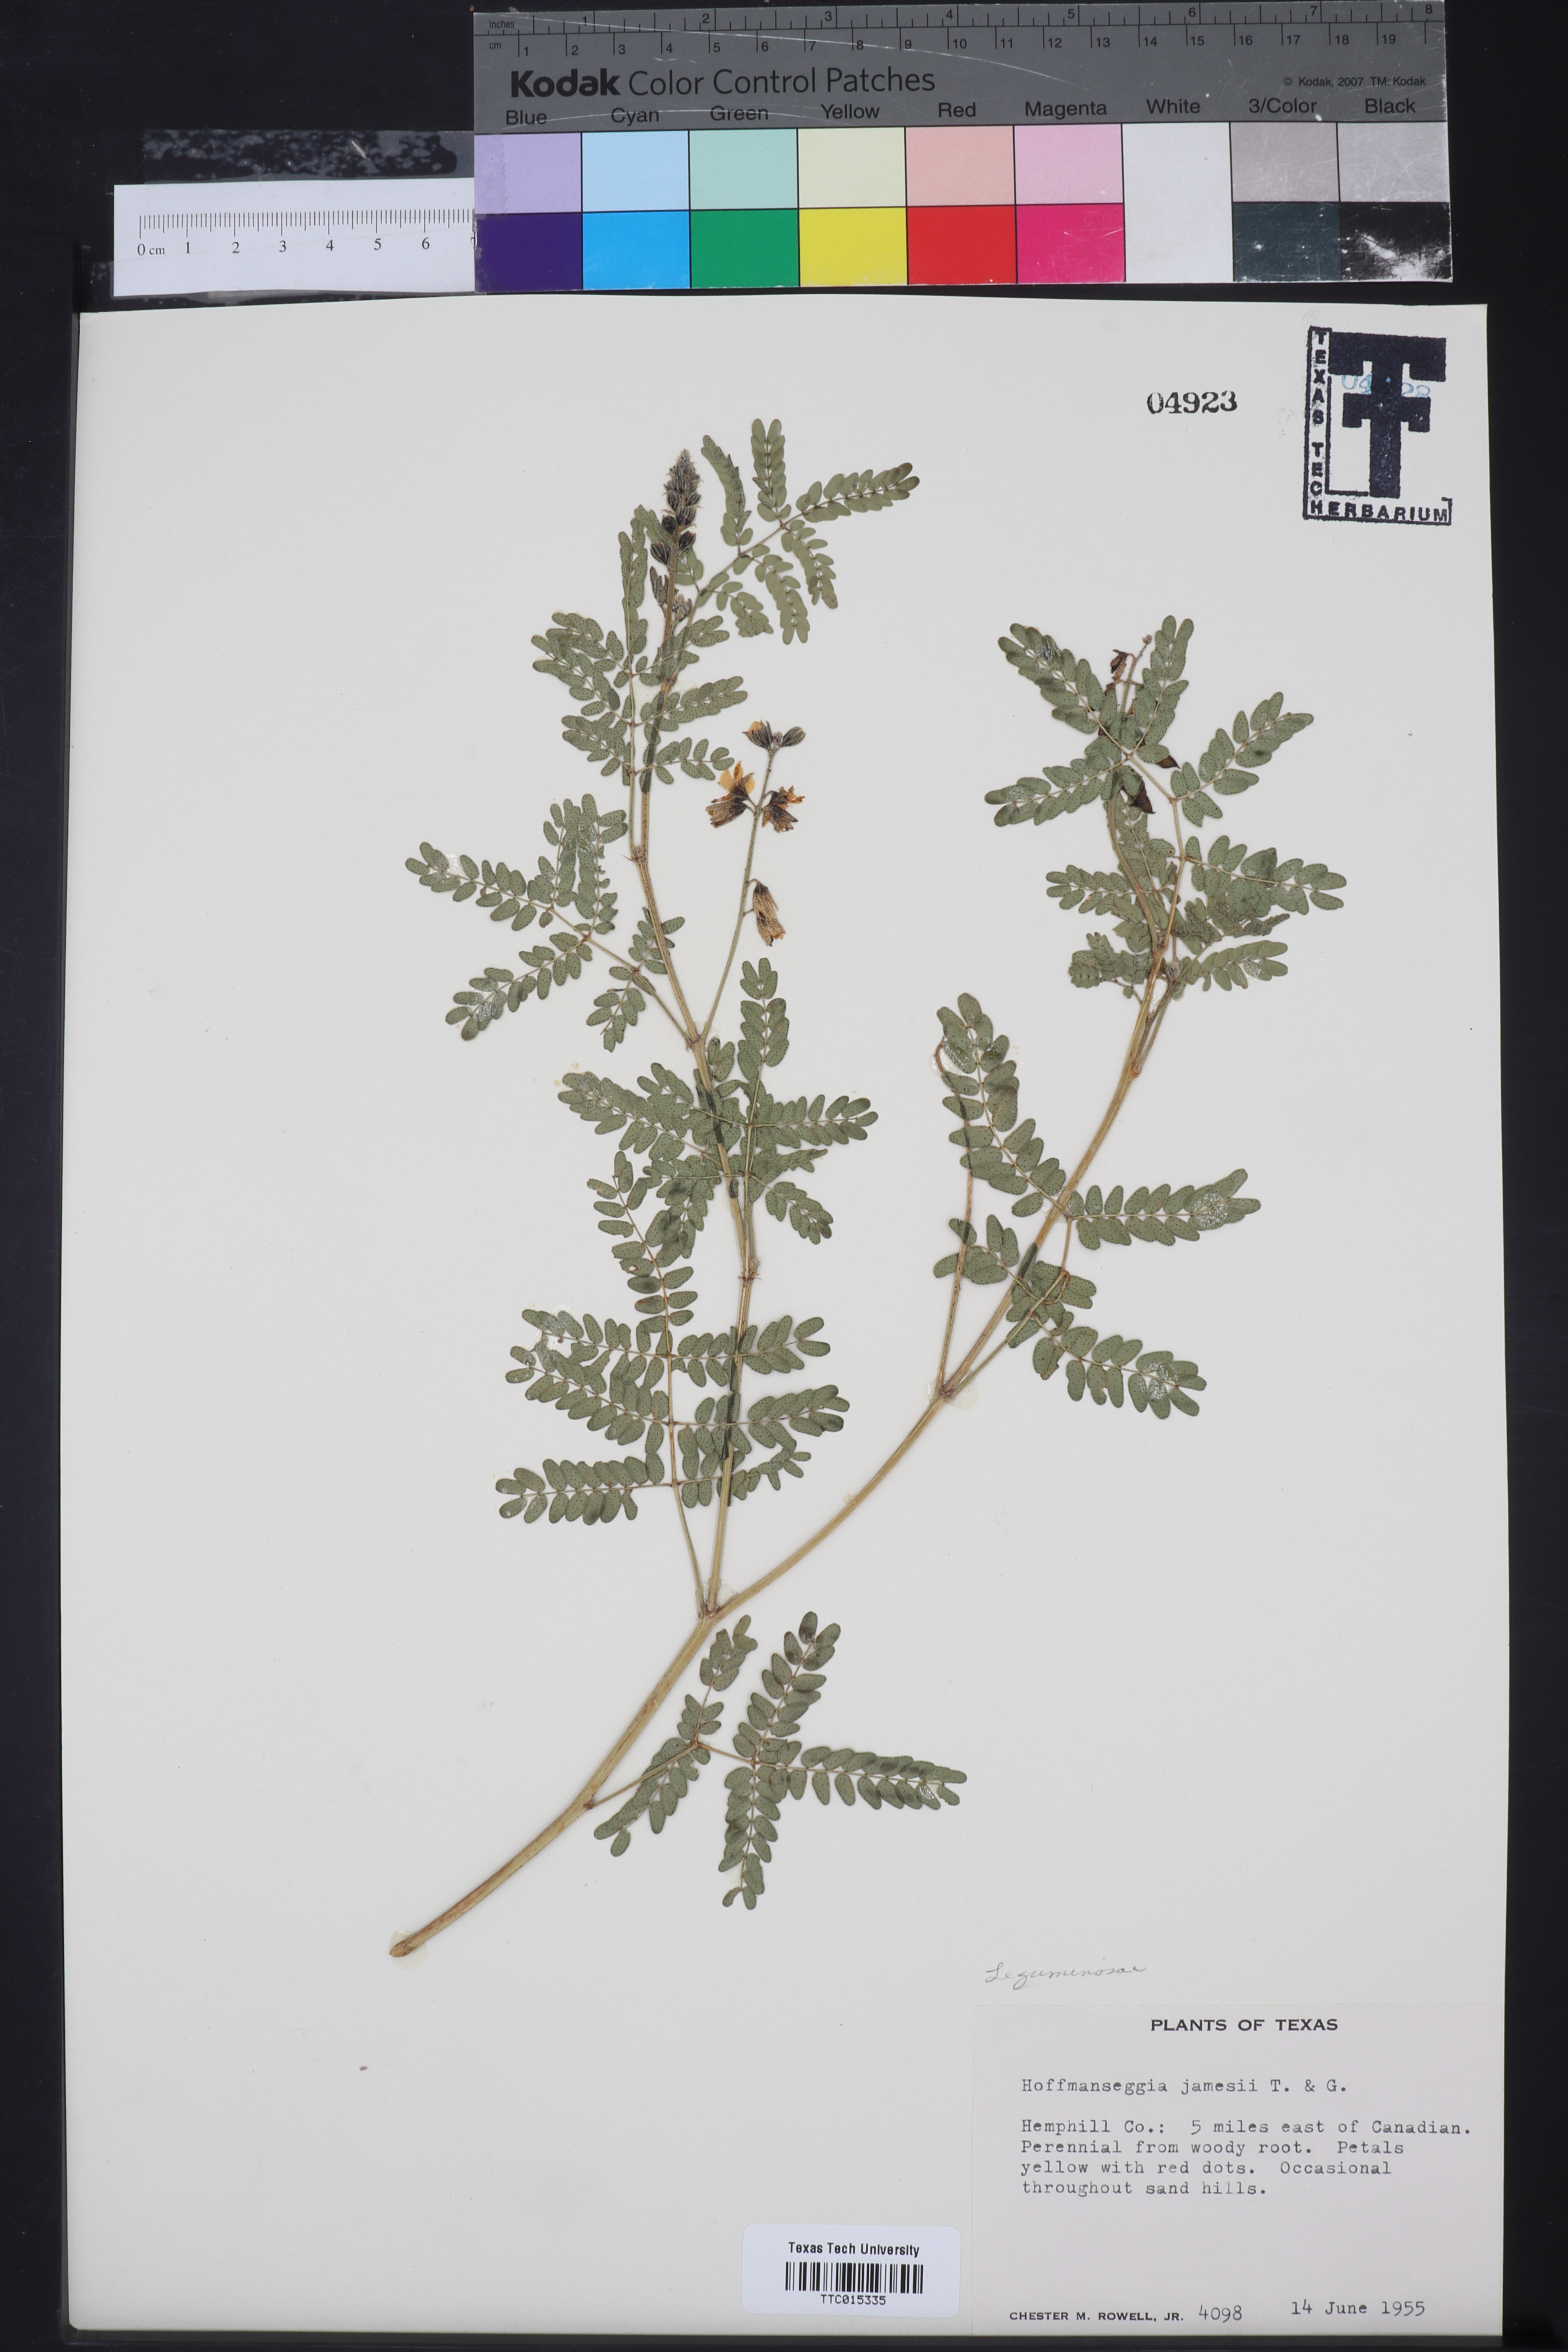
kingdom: Plantae
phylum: Tracheophyta
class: Magnoliopsida
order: Fabales
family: Fabaceae
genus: Pomaria
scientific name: Pomaria jamesii
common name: James' caesalpinia
